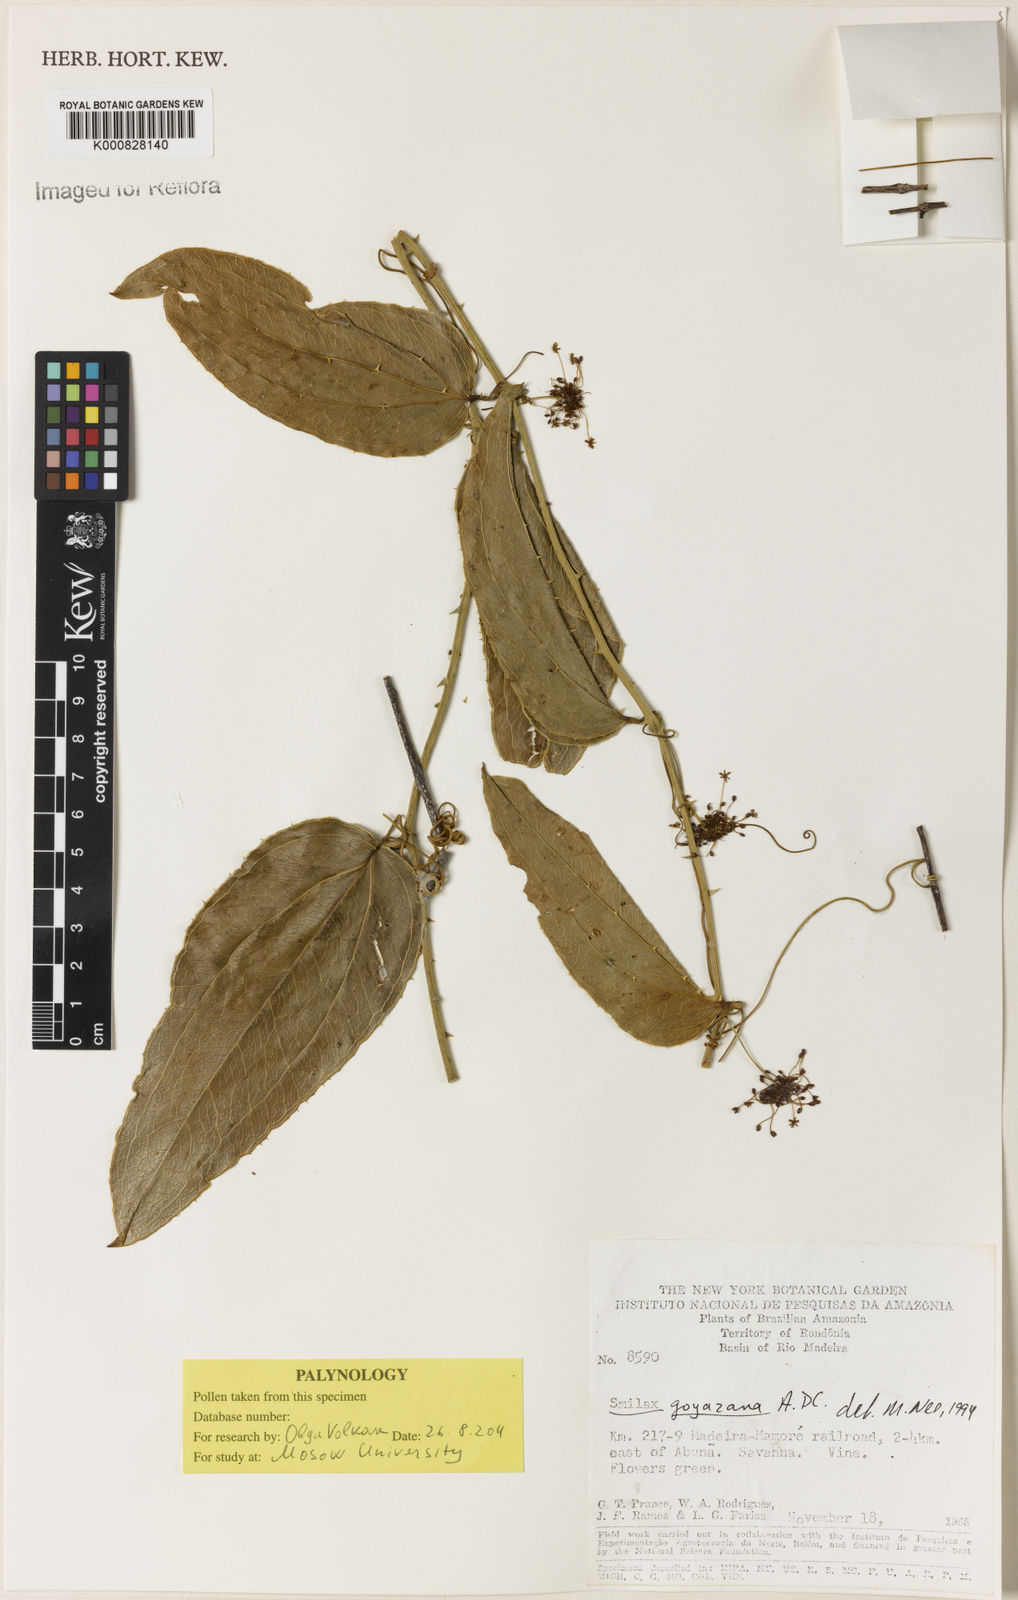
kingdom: Plantae
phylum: Tracheophyta
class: Liliopsida
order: Liliales
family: Smilacaceae
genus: Smilax
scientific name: Smilax goyazana
